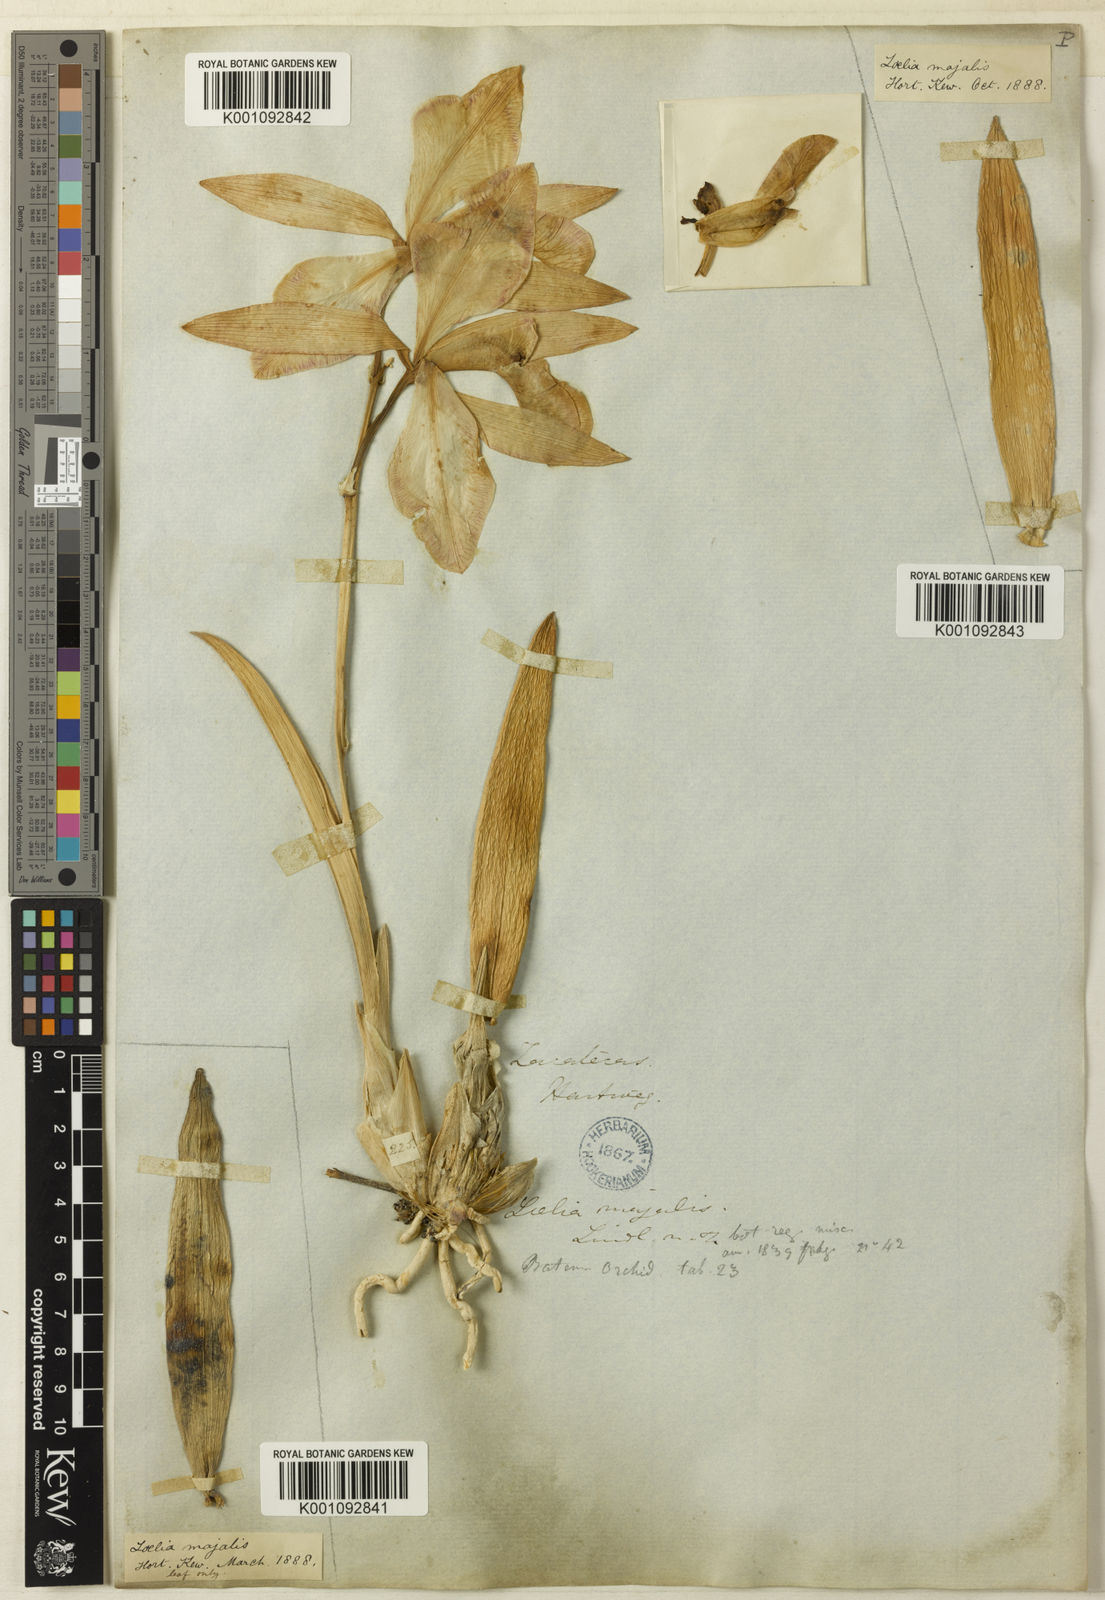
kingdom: Plantae
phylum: Tracheophyta
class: Liliopsida
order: Asparagales
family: Orchidaceae
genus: Laelia
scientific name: Laelia speciosa
